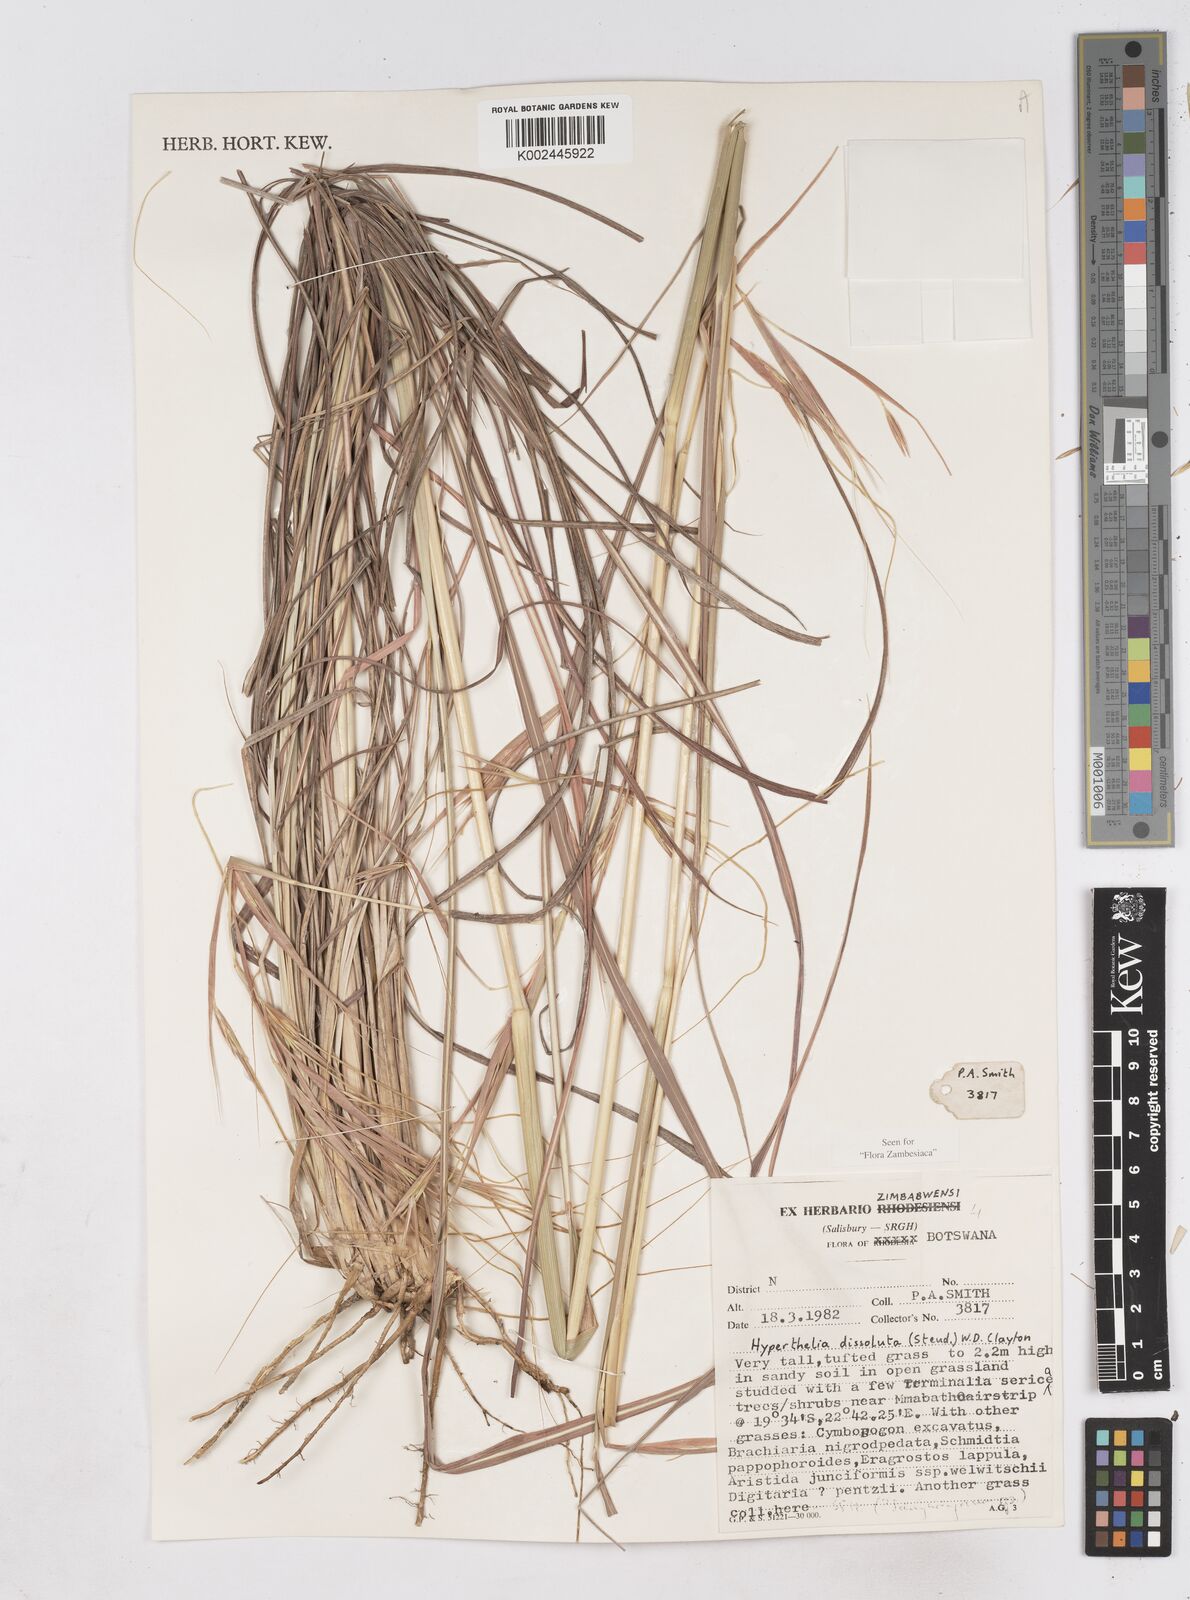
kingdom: Plantae
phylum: Tracheophyta
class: Liliopsida
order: Poales
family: Poaceae
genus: Hyperthelia
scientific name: Hyperthelia dissoluta
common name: Yellow thatching grass
